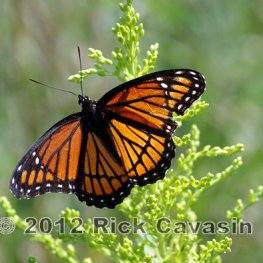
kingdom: Animalia
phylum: Arthropoda
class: Insecta
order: Lepidoptera
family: Nymphalidae
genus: Limenitis
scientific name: Limenitis archippus
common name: Viceroy
